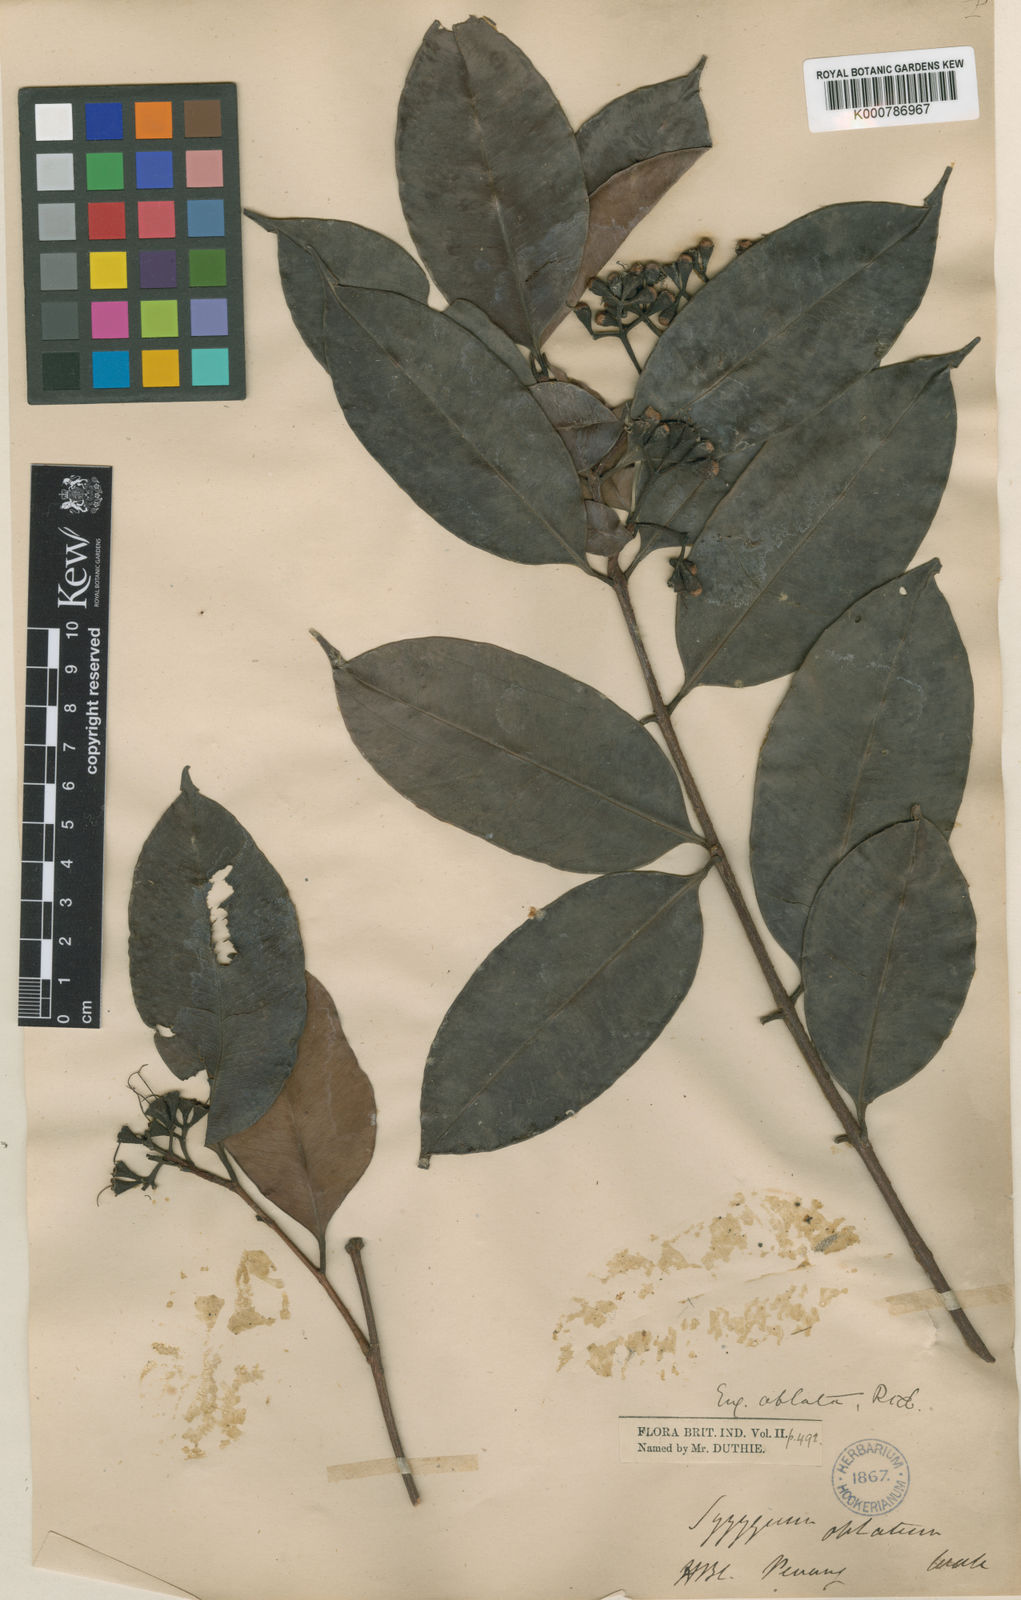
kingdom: Plantae
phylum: Tracheophyta
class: Magnoliopsida
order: Myrtales
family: Myrtaceae
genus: Syzygium
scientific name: Syzygium
